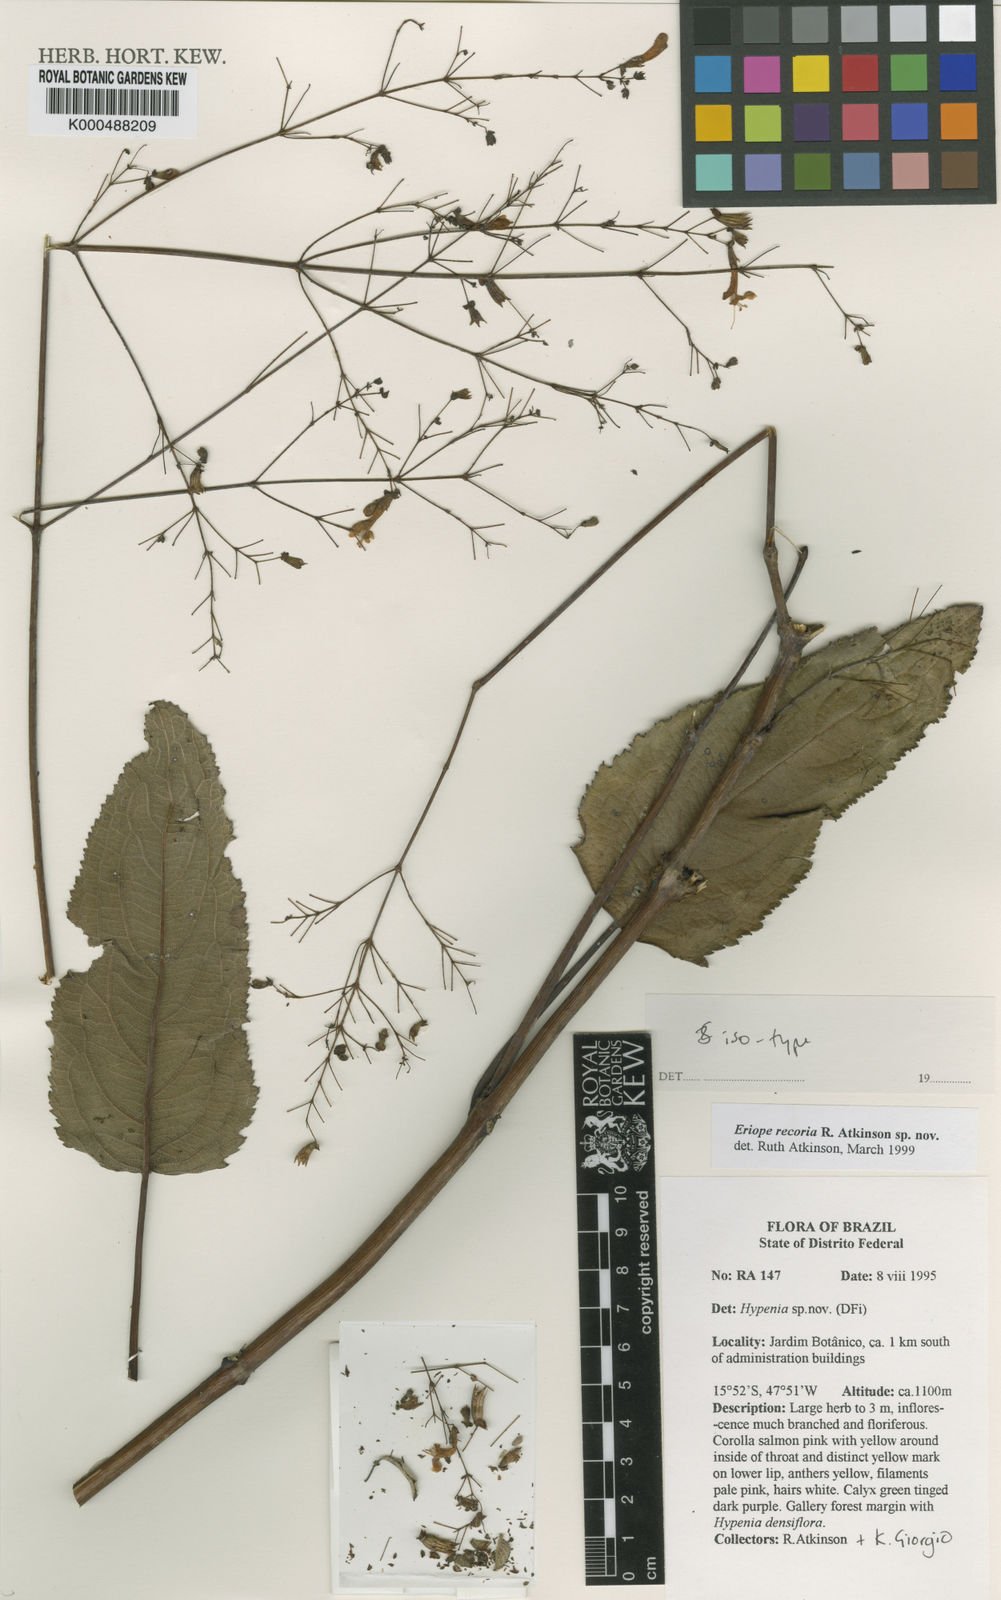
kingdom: Plantae
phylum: Tracheophyta
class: Magnoliopsida
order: Lamiales
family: Lamiaceae
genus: Hypenia
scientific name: Hypenia
